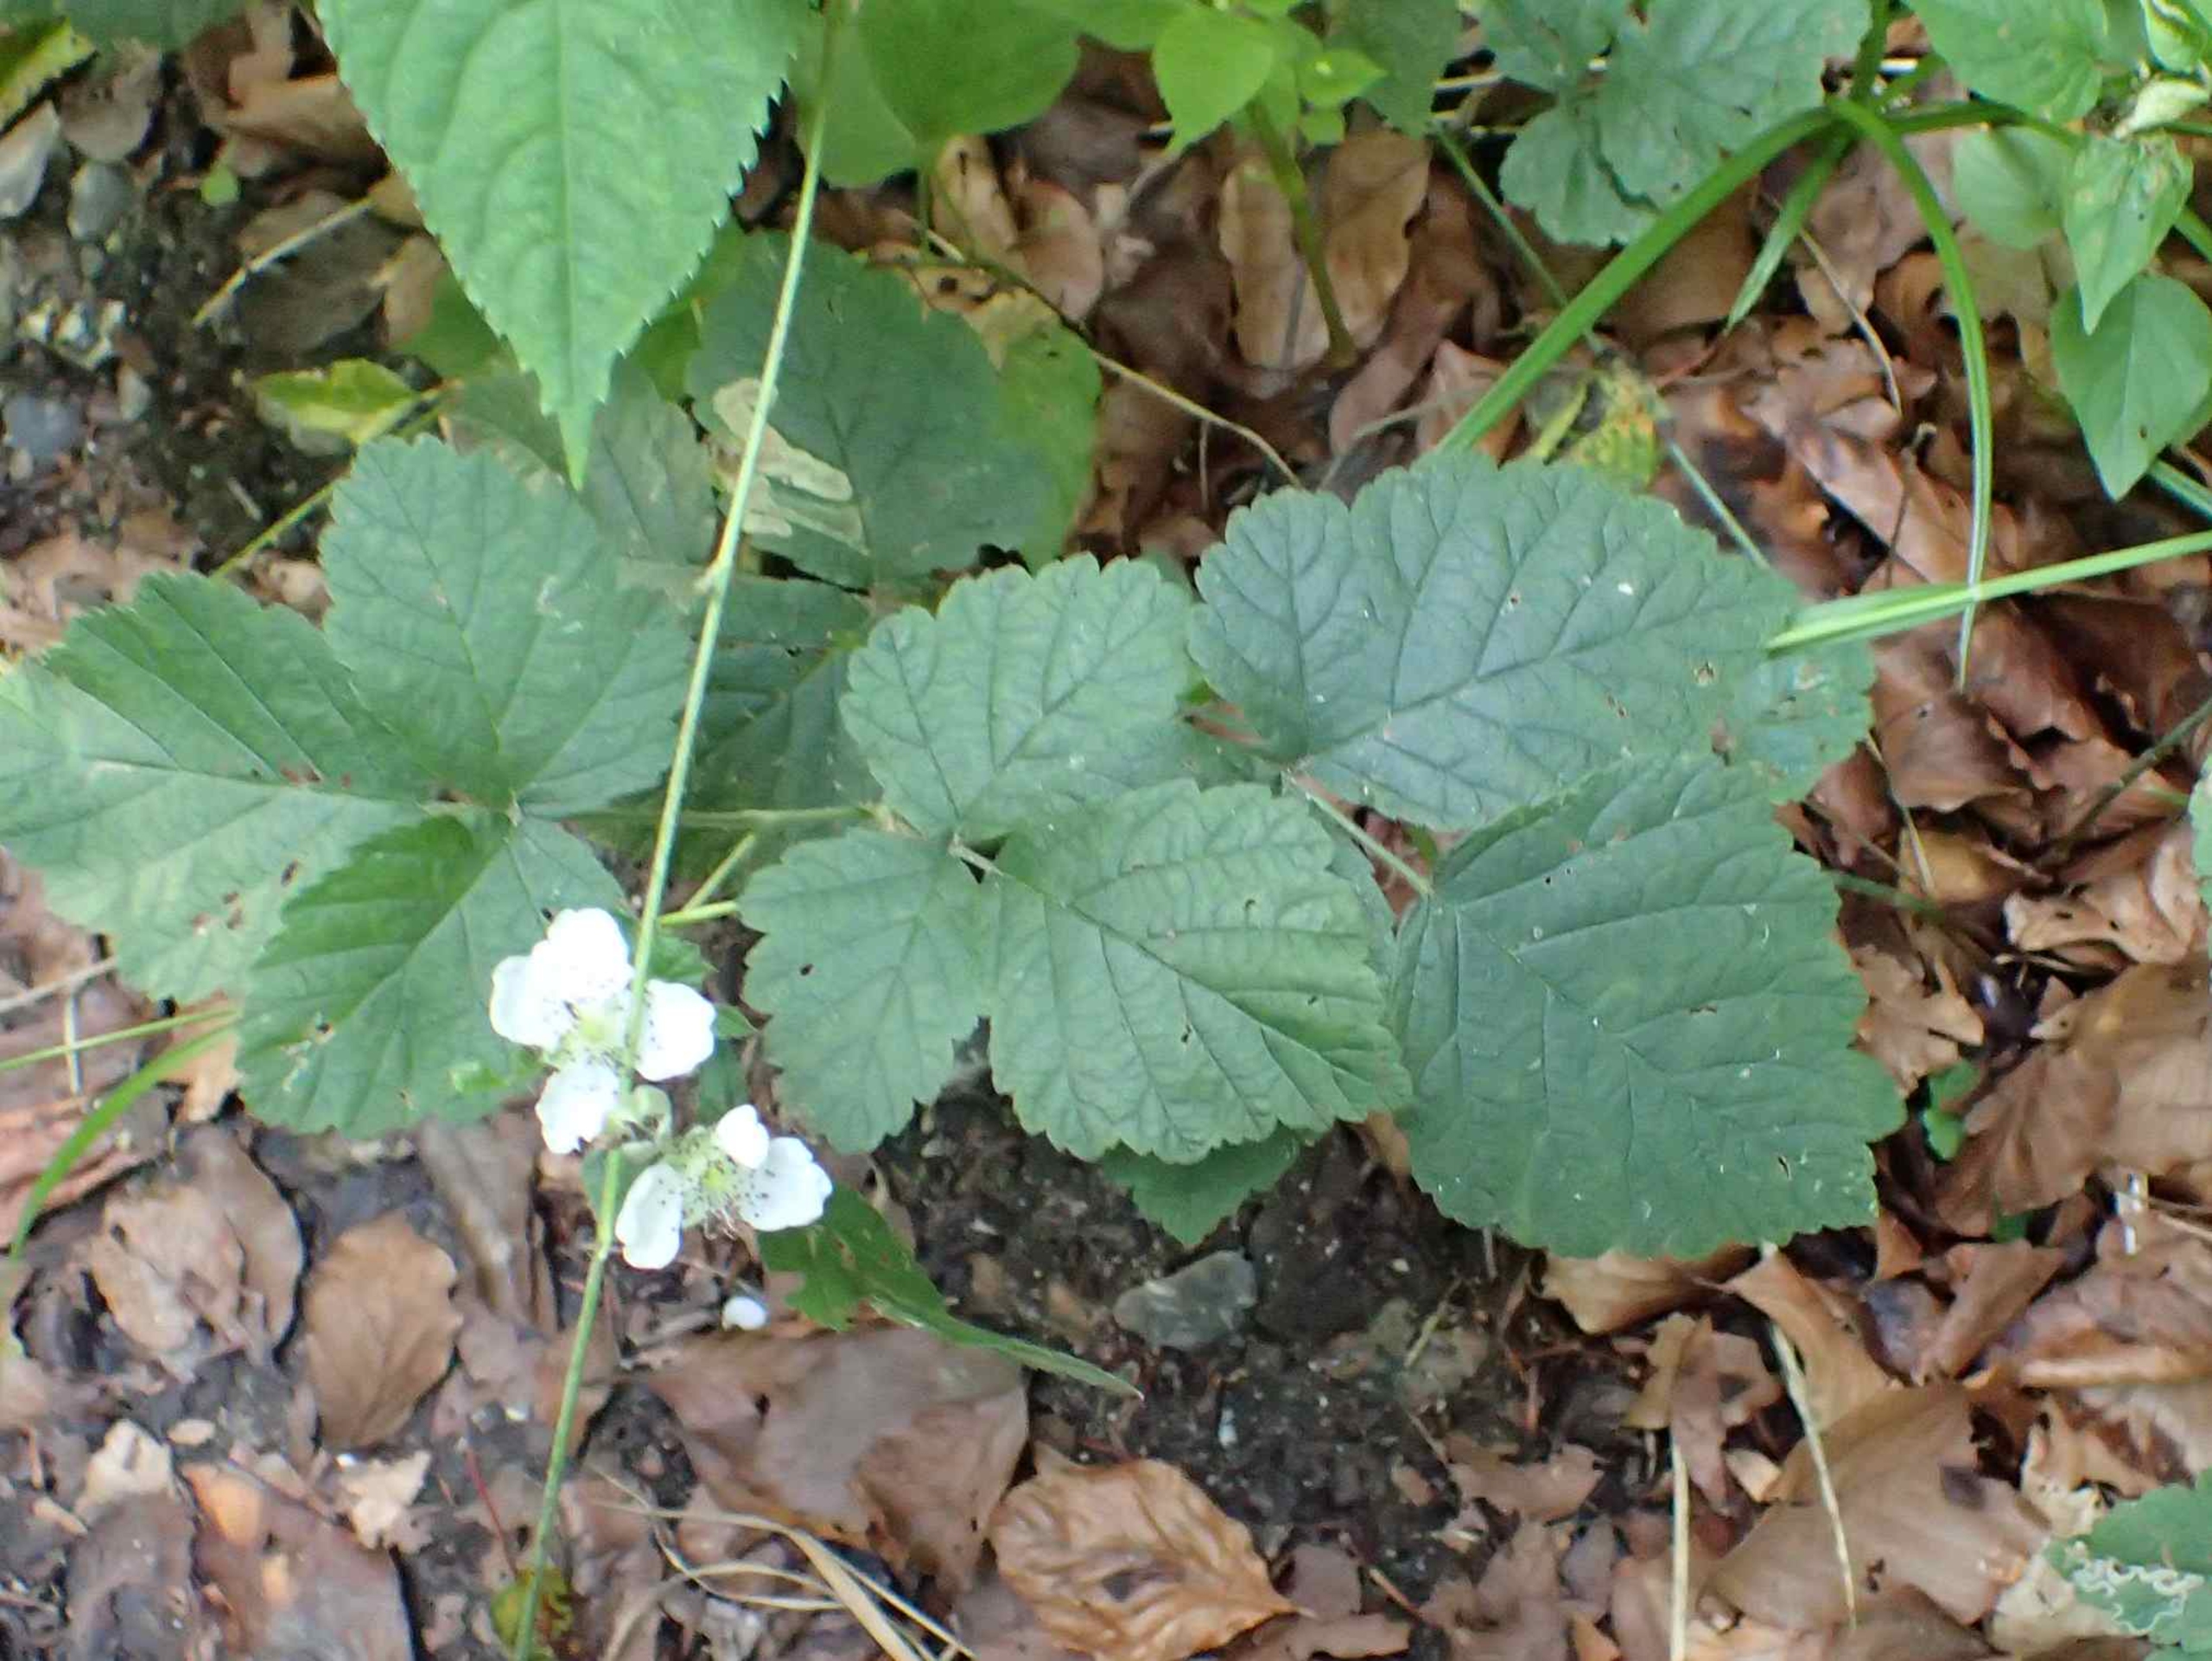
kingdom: Plantae
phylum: Tracheophyta
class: Magnoliopsida
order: Rosales
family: Rosaceae
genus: Rubus
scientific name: Rubus saxatilis
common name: Fruebær
